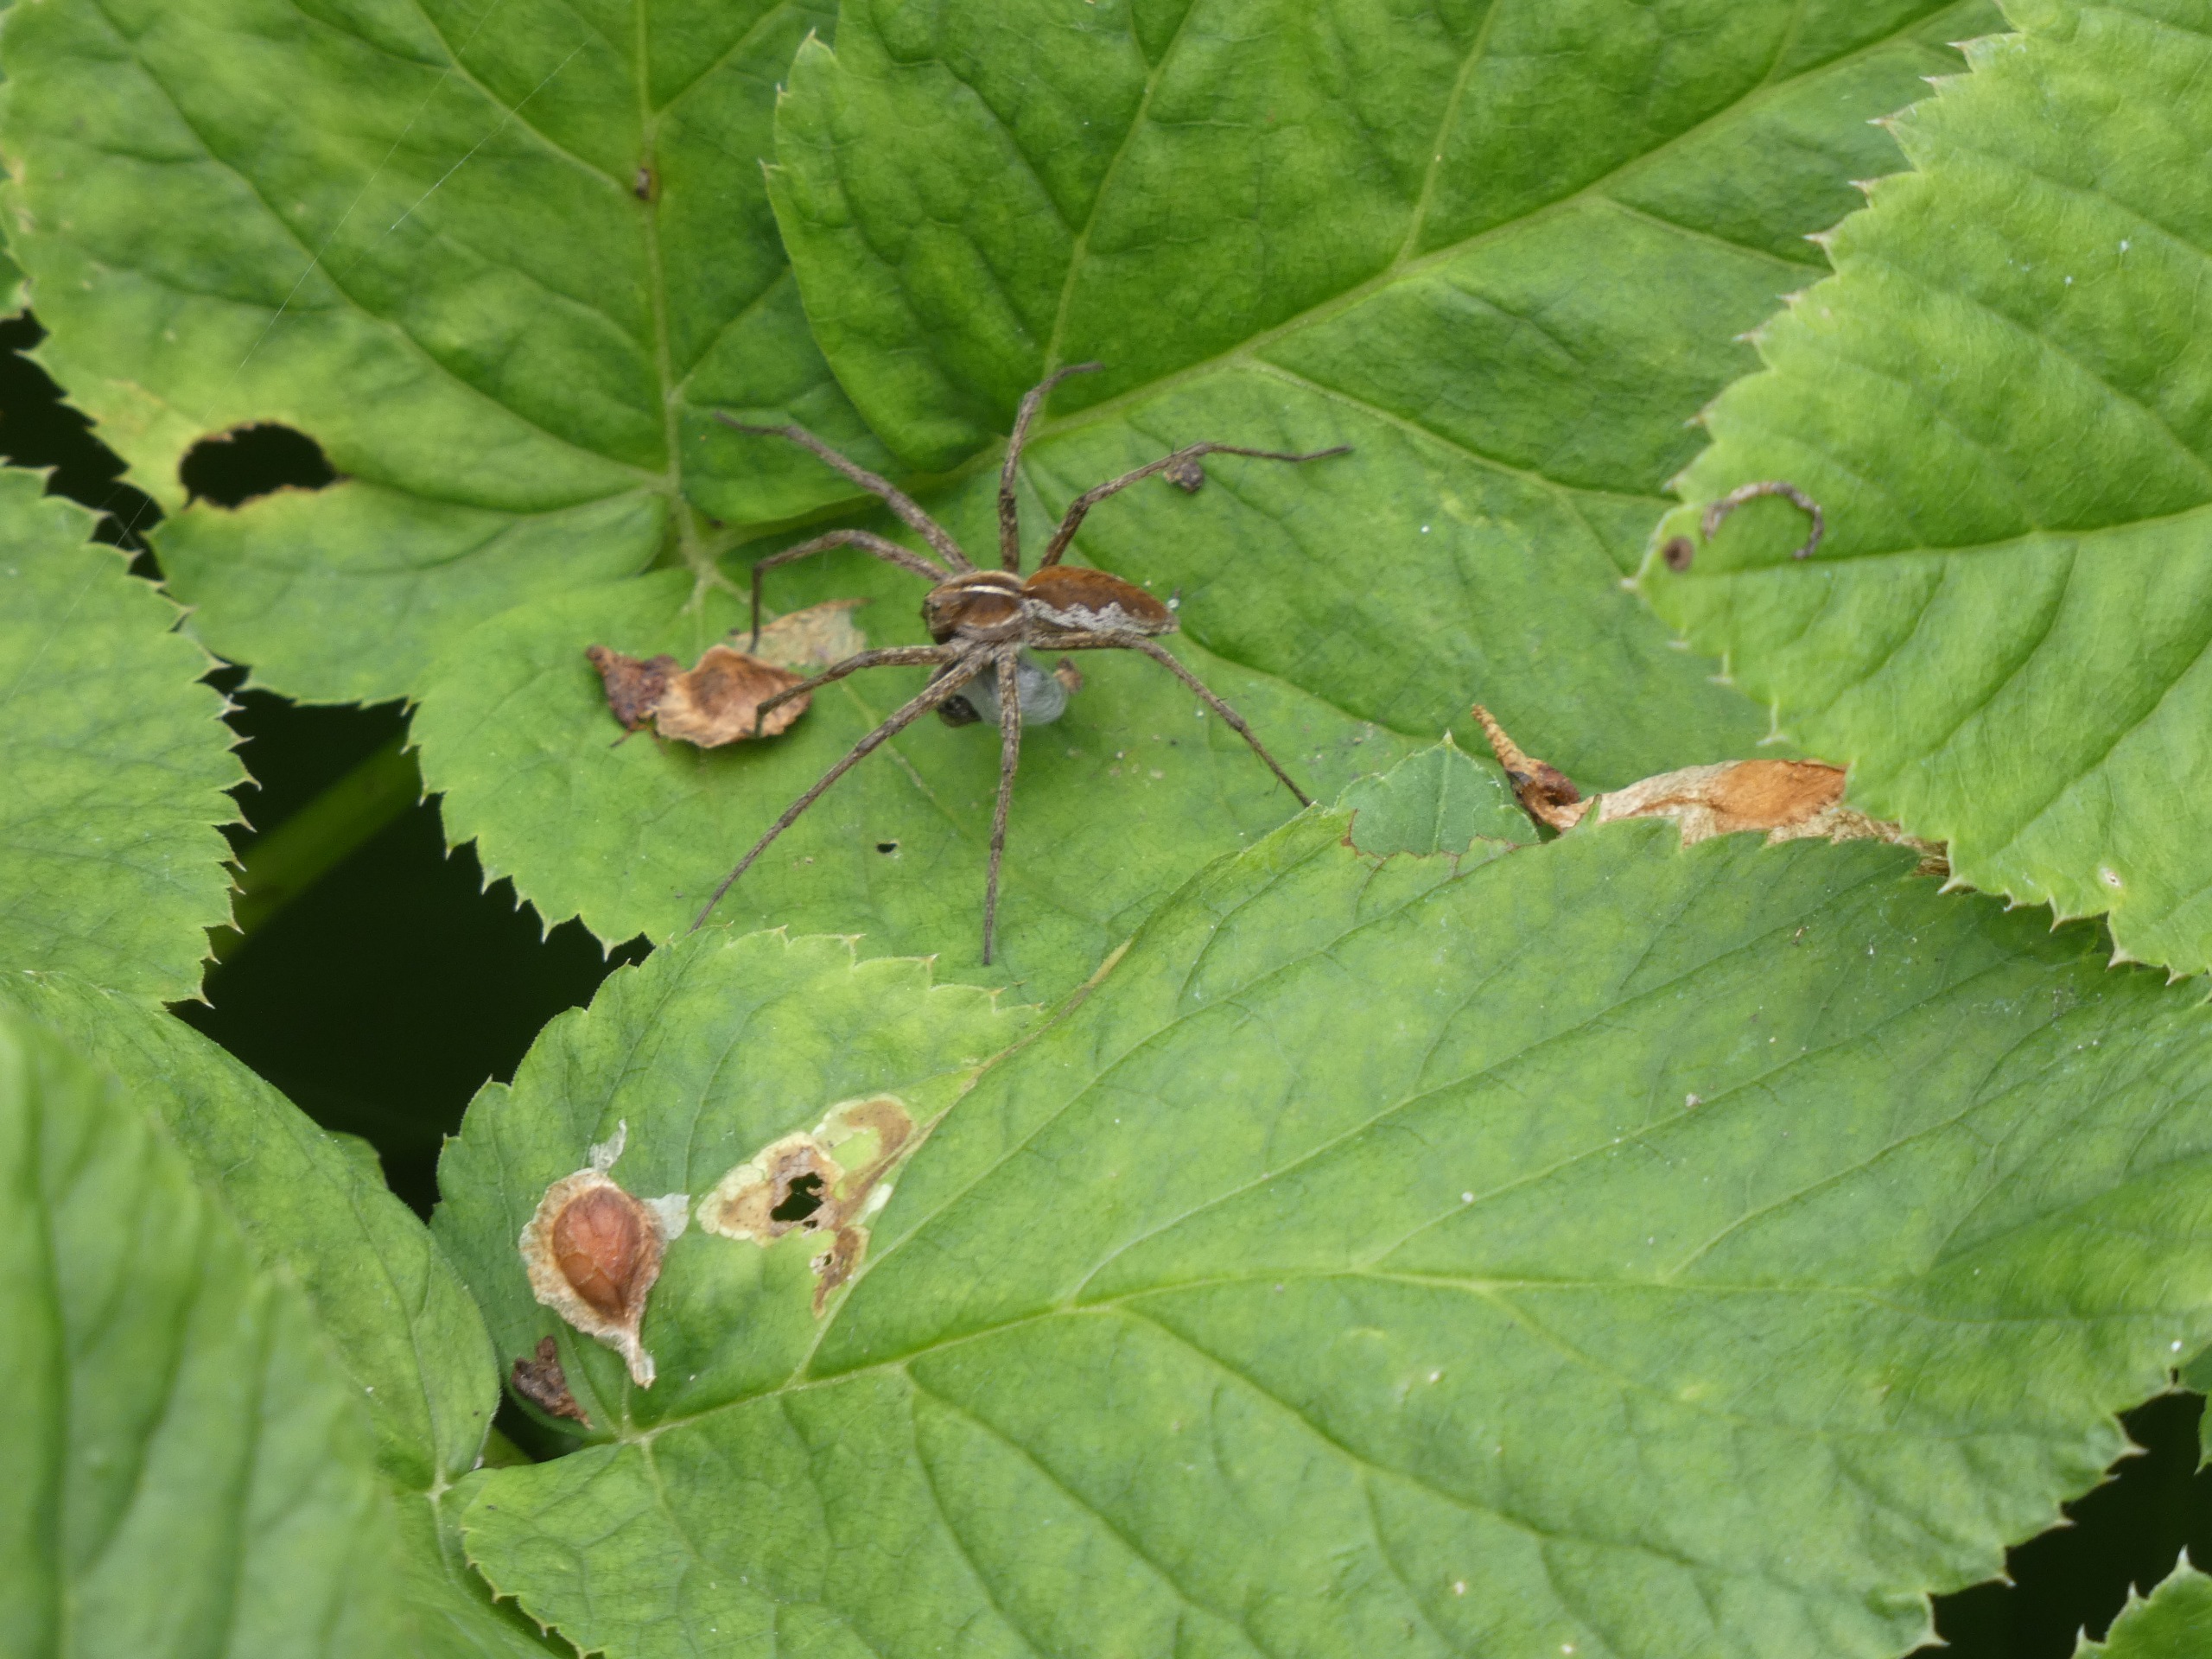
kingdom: Animalia
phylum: Arthropoda
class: Arachnida
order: Araneae
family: Pisauridae
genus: Pisaura
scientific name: Pisaura mirabilis
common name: Almindelig rovedderkop
